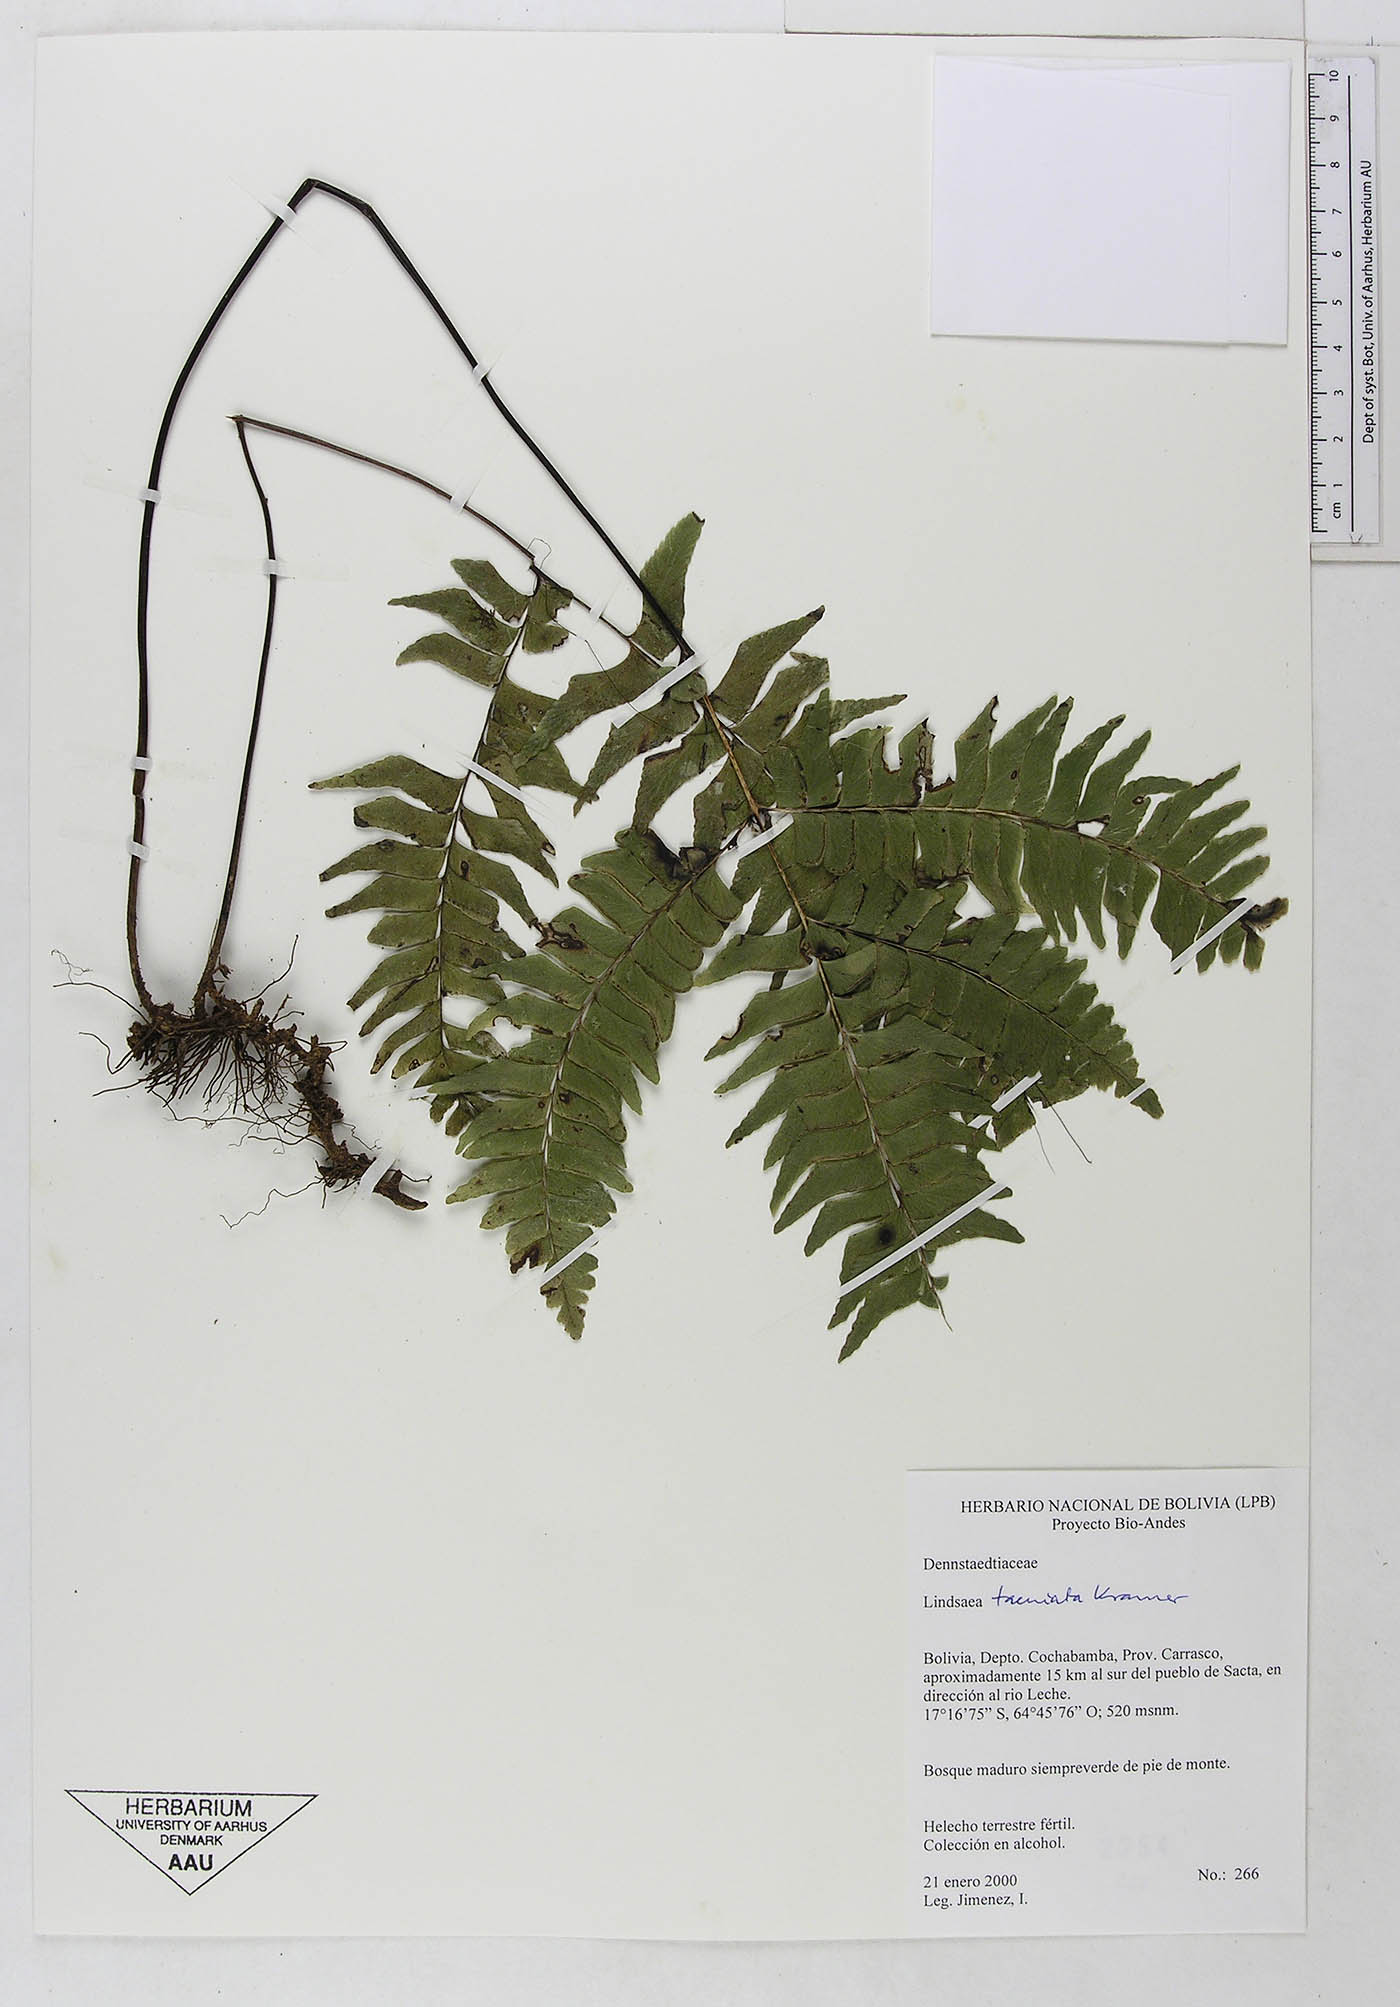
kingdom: Plantae
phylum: Tracheophyta
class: Polypodiopsida
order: Polypodiales
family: Lindsaeaceae
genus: Lindsaea
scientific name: Lindsaea taeniata
